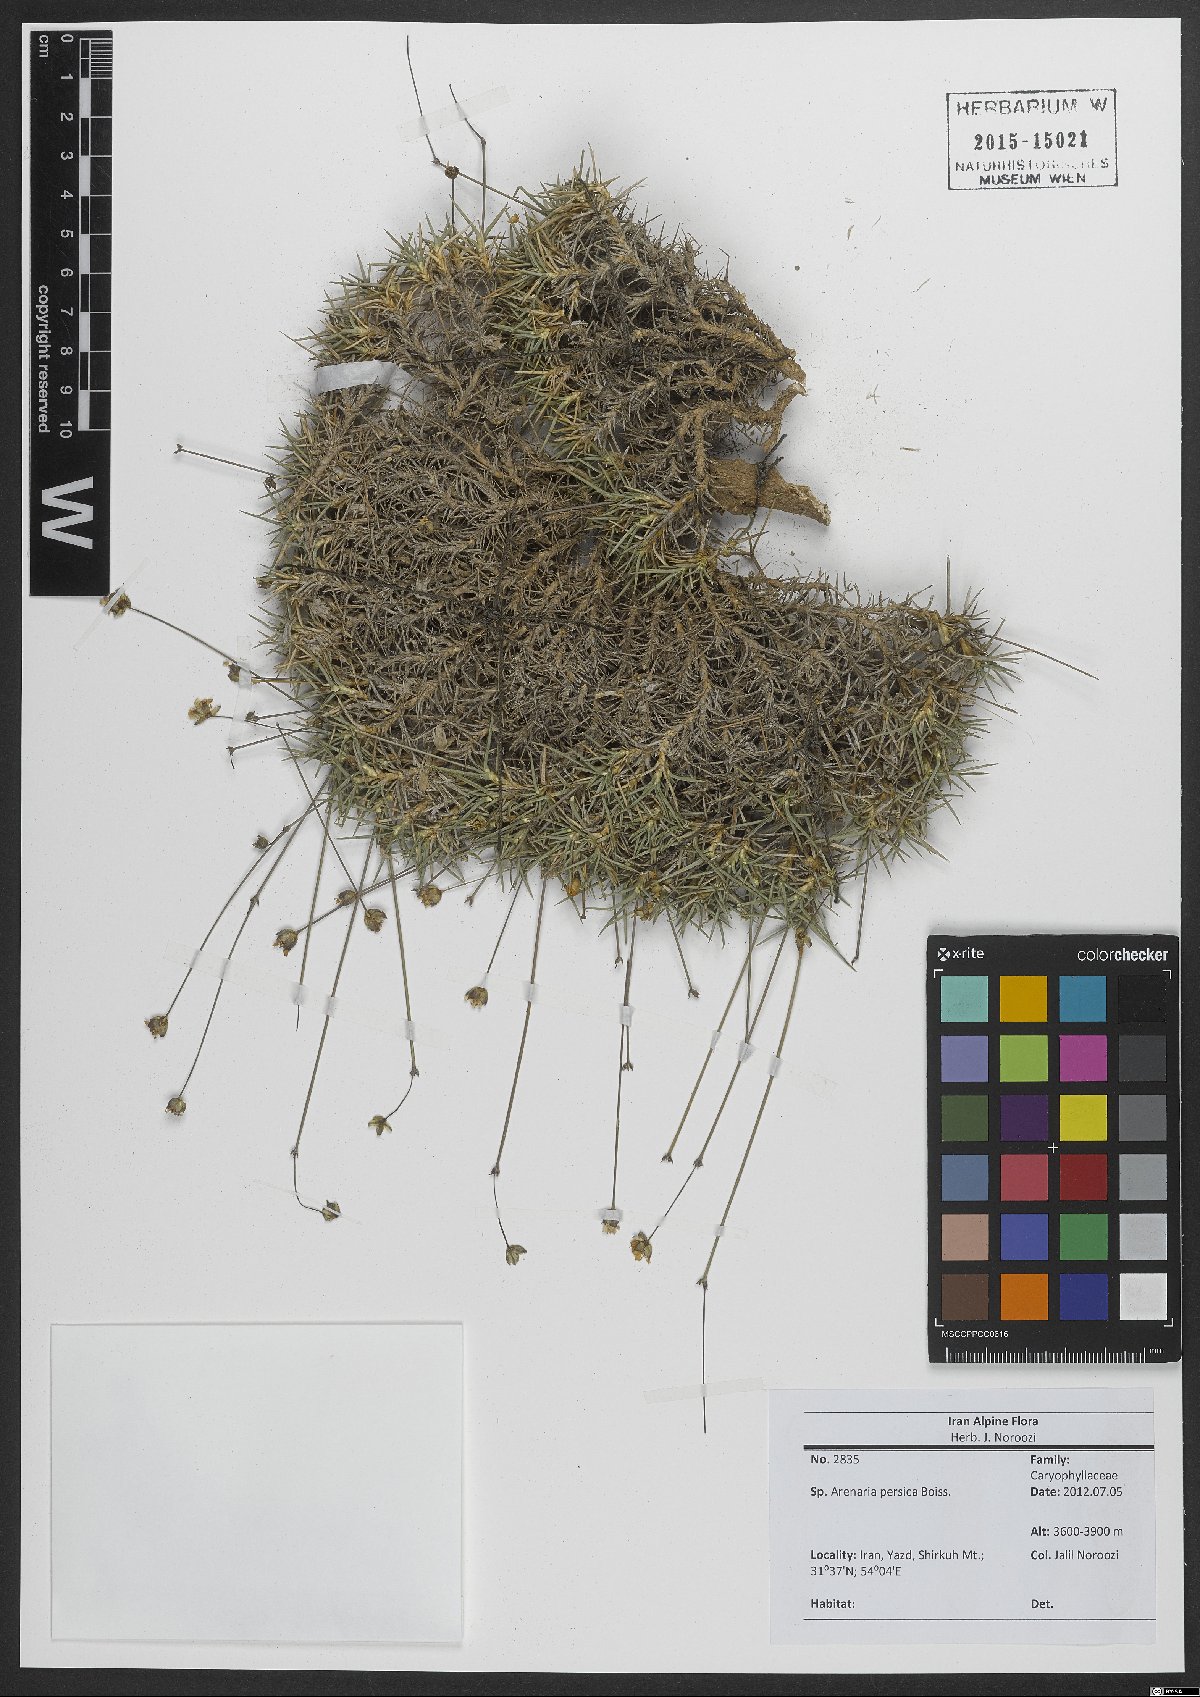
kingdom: Plantae
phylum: Tracheophyta
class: Magnoliopsida
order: Caryophyllales
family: Caryophyllaceae
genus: Eremogone
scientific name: Eremogone persica
